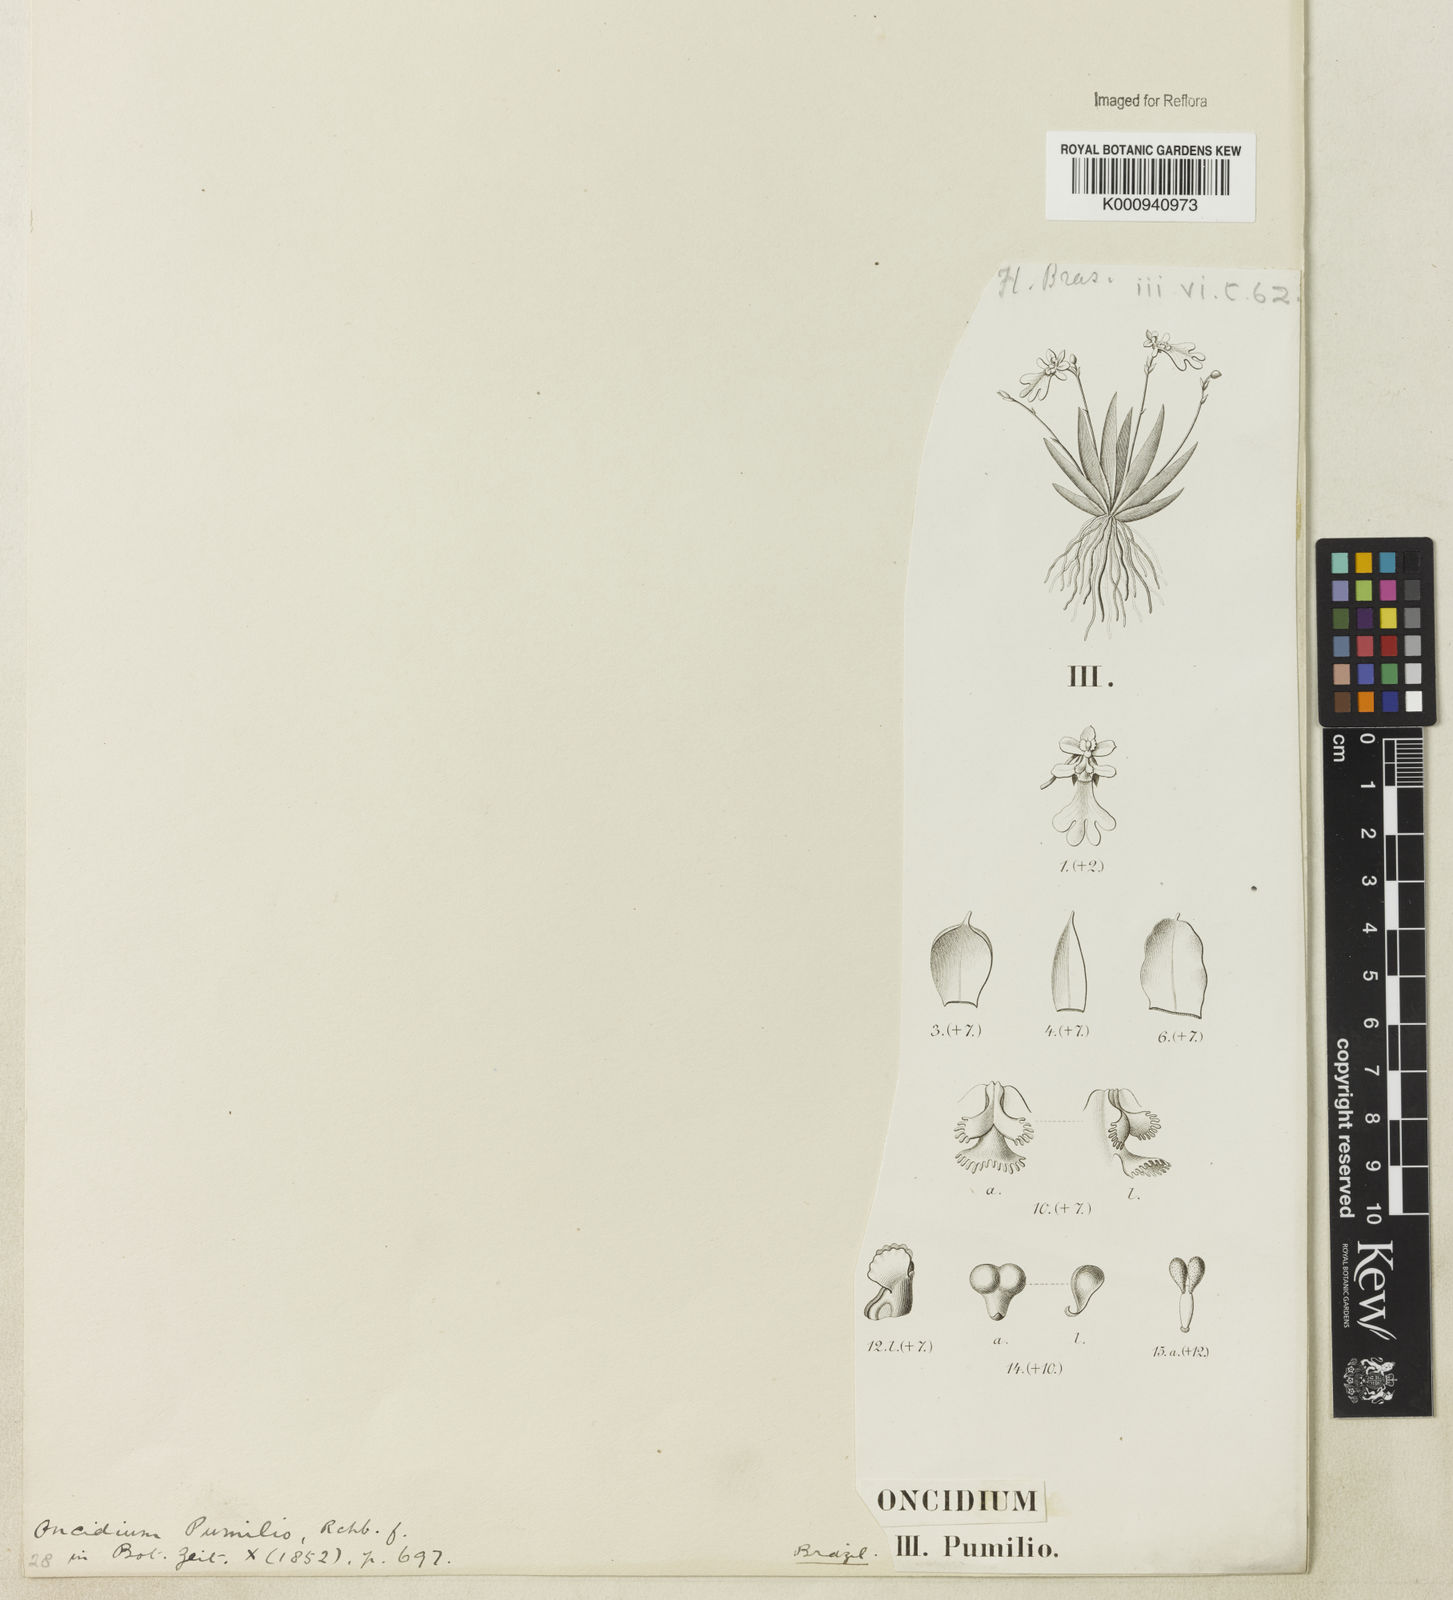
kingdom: Plantae
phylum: Tracheophyta
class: Liliopsida
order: Asparagales
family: Orchidaceae
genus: Erycina
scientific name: Erycina pumilio
